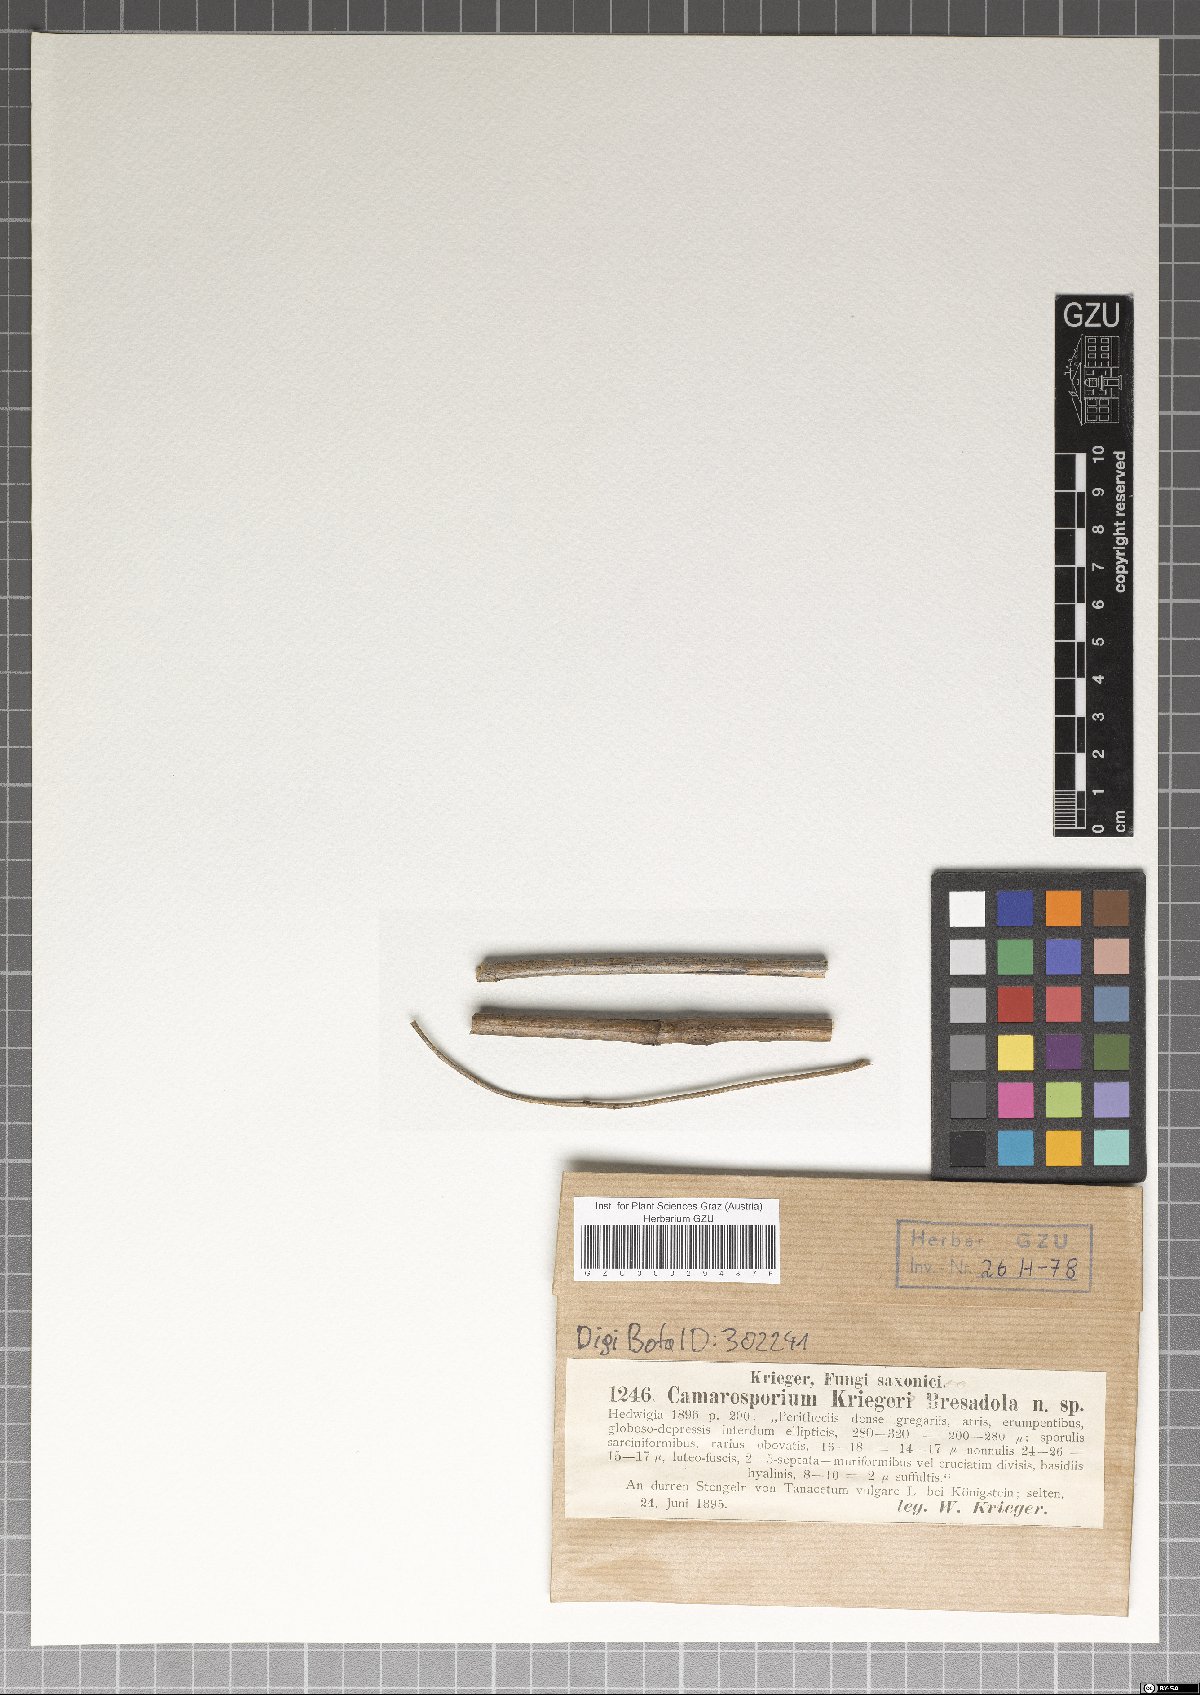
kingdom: Plantae
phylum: Bryophyta
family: Dothideomycetes
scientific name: Dothideomycetes
